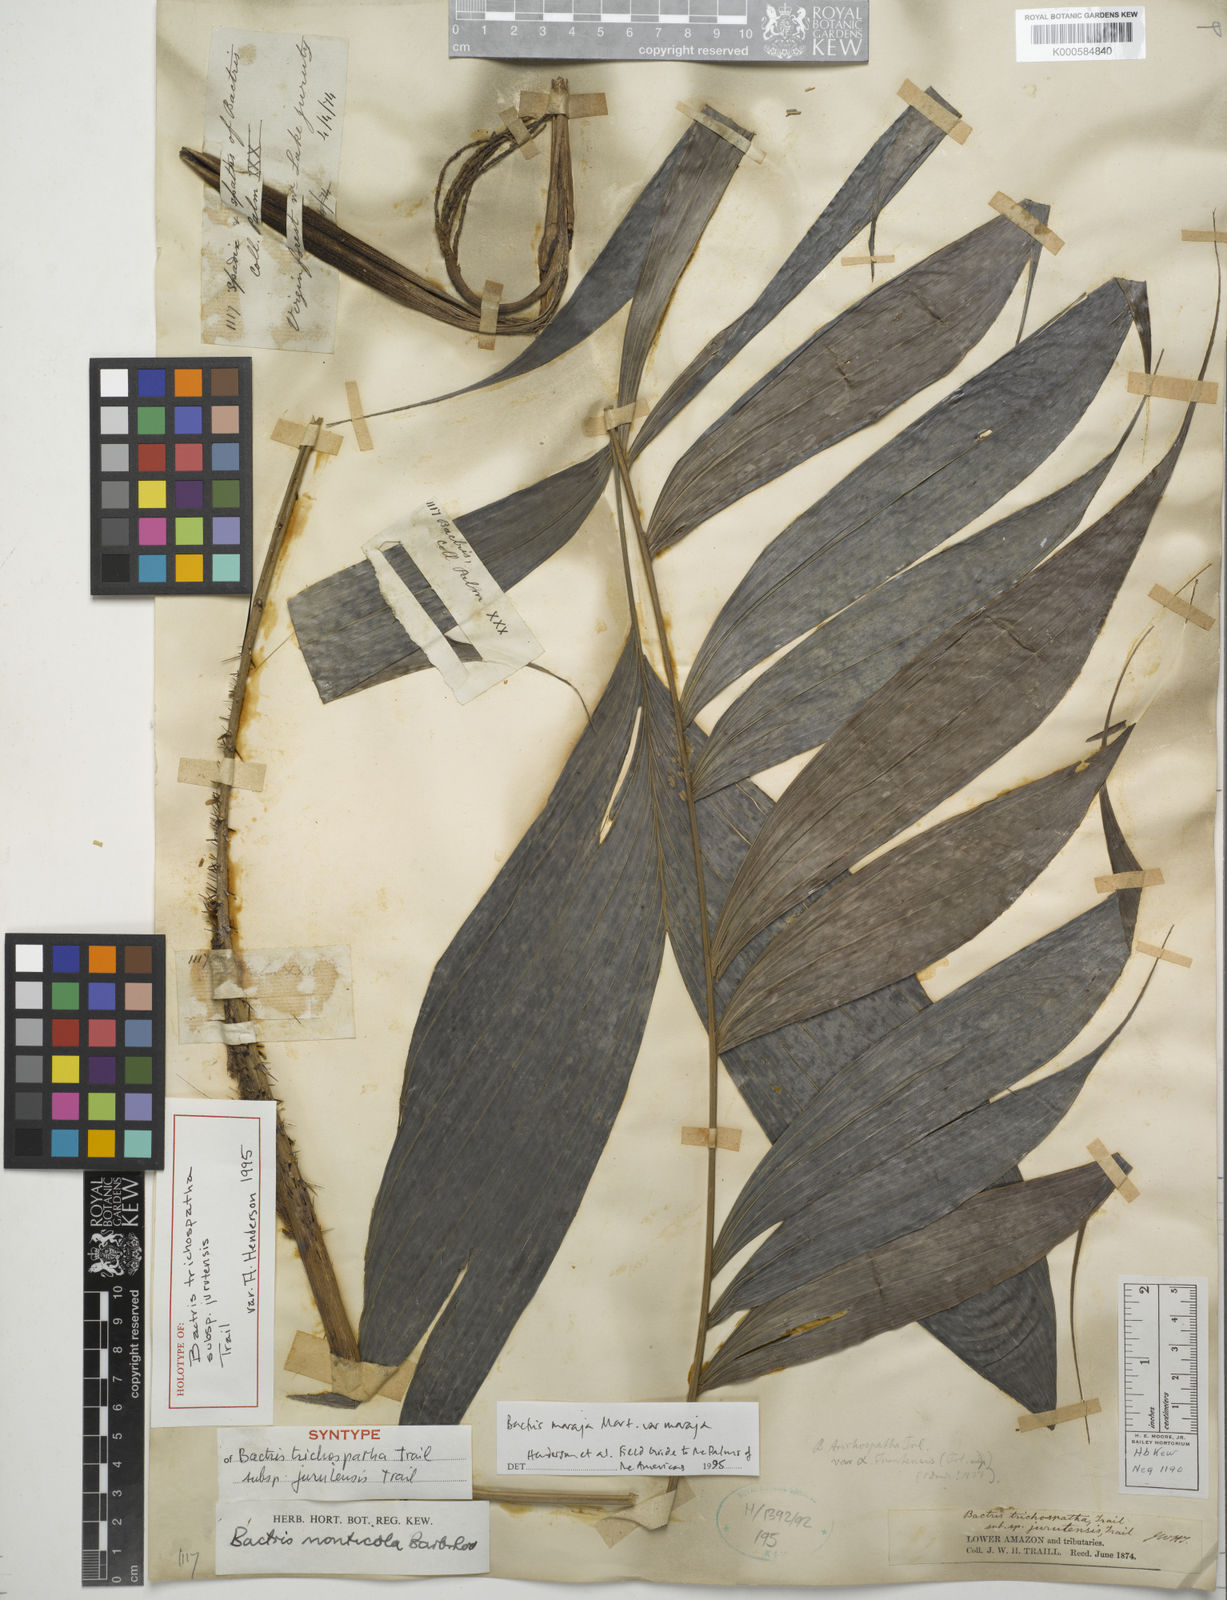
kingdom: Plantae
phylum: Tracheophyta
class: Liliopsida
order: Arecales
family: Arecaceae
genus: Bactris
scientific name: Bactris maraja
